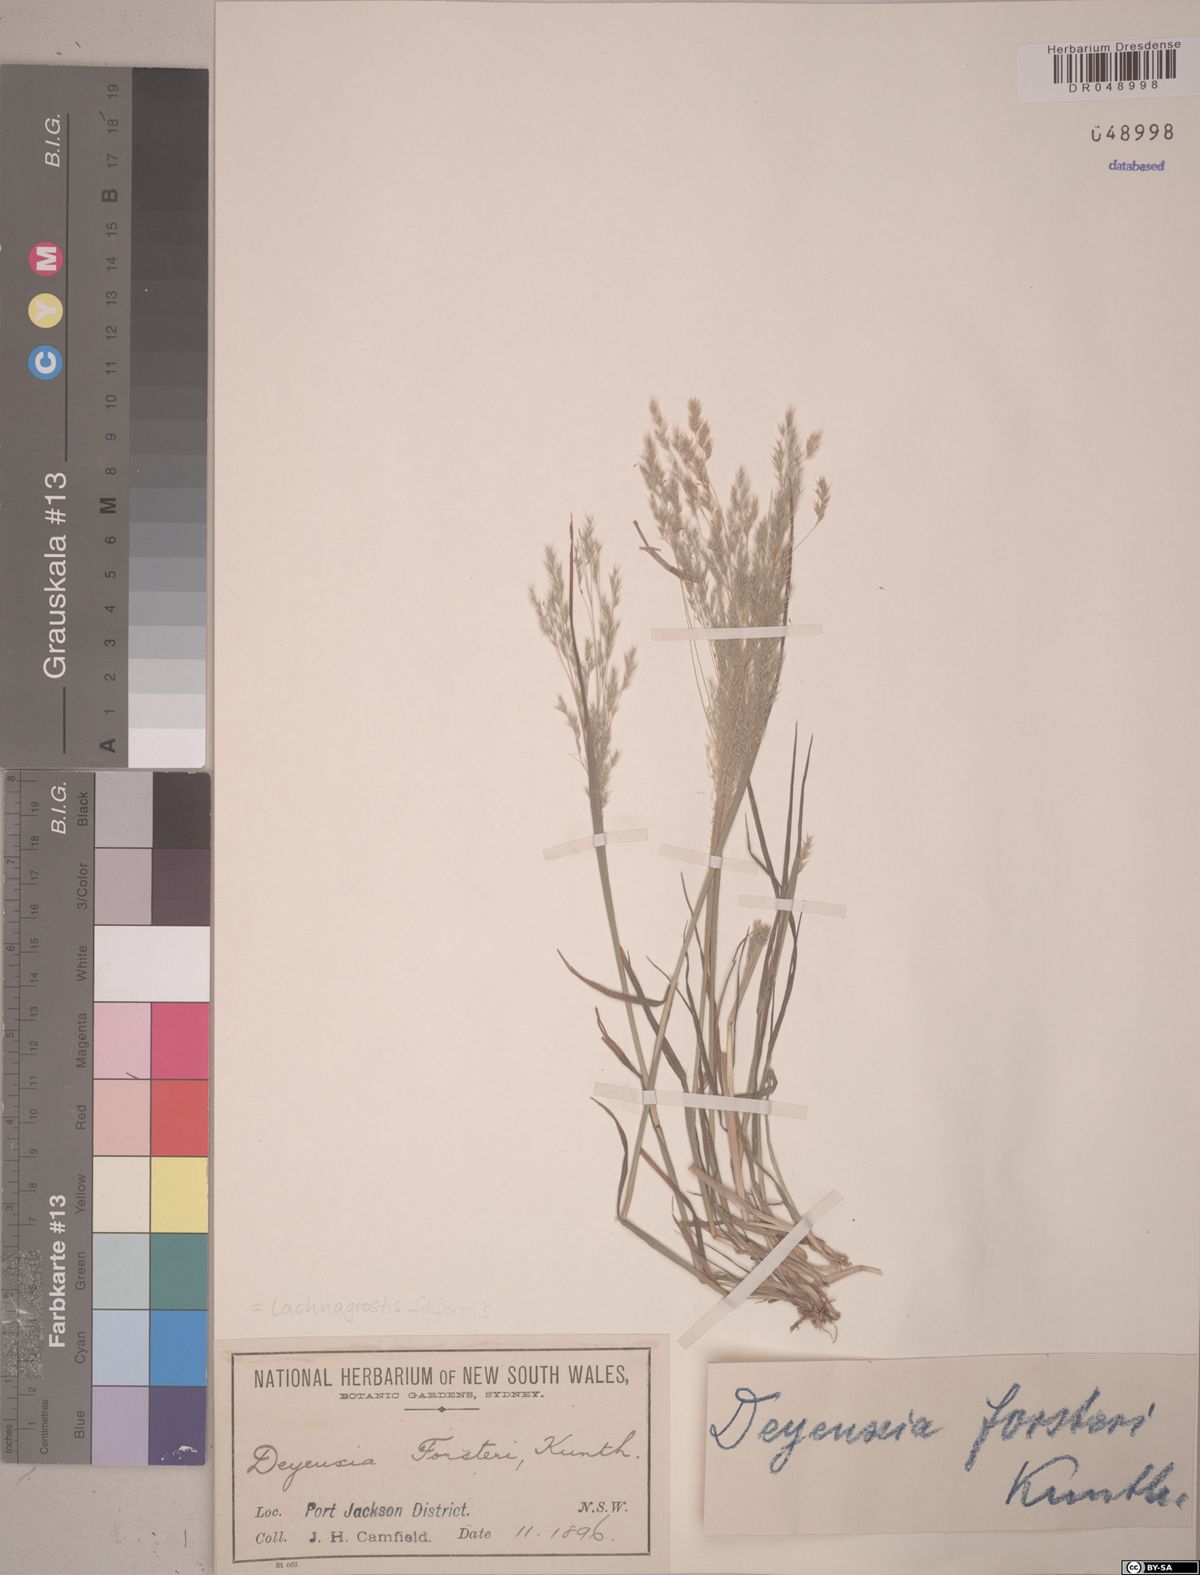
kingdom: Plantae
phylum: Tracheophyta
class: Liliopsida
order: Poales
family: Poaceae
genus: Lachnagrostis
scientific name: Lachnagrostis filiformis
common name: Bentgrass
